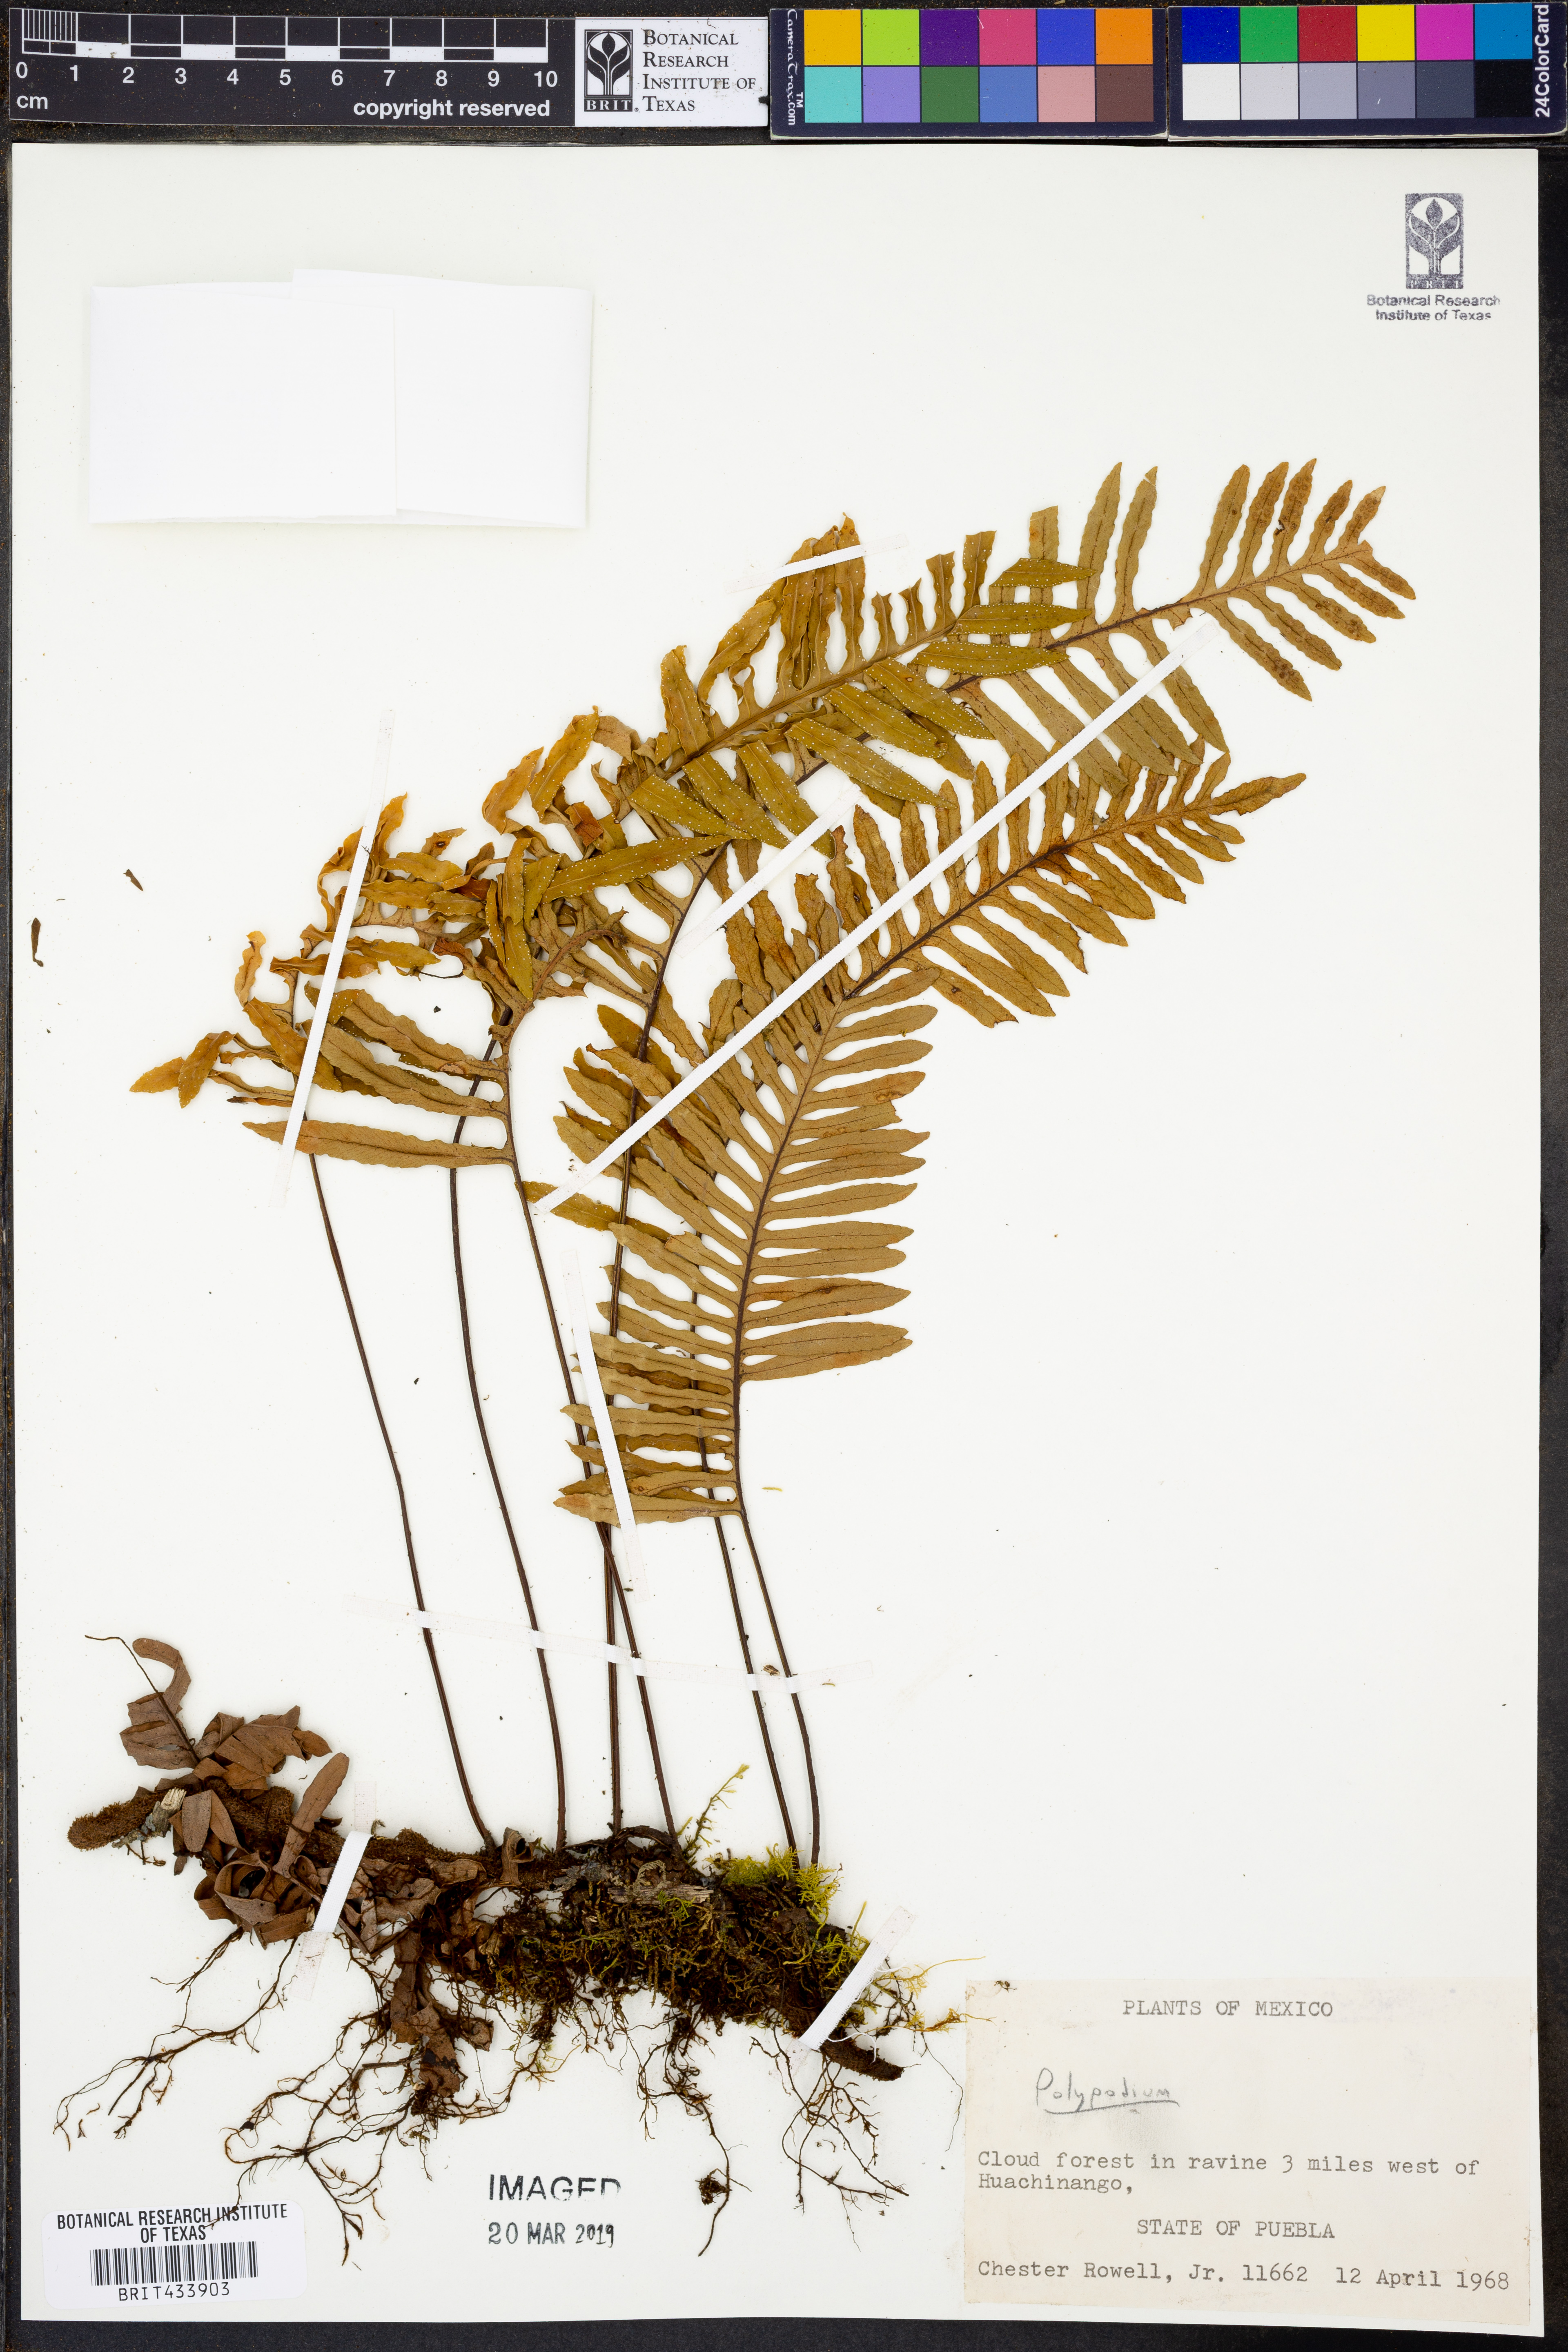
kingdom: Plantae
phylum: Tracheophyta
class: Polypodiopsida
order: Polypodiales
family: Polypodiaceae
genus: Polypodium
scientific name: Polypodium
